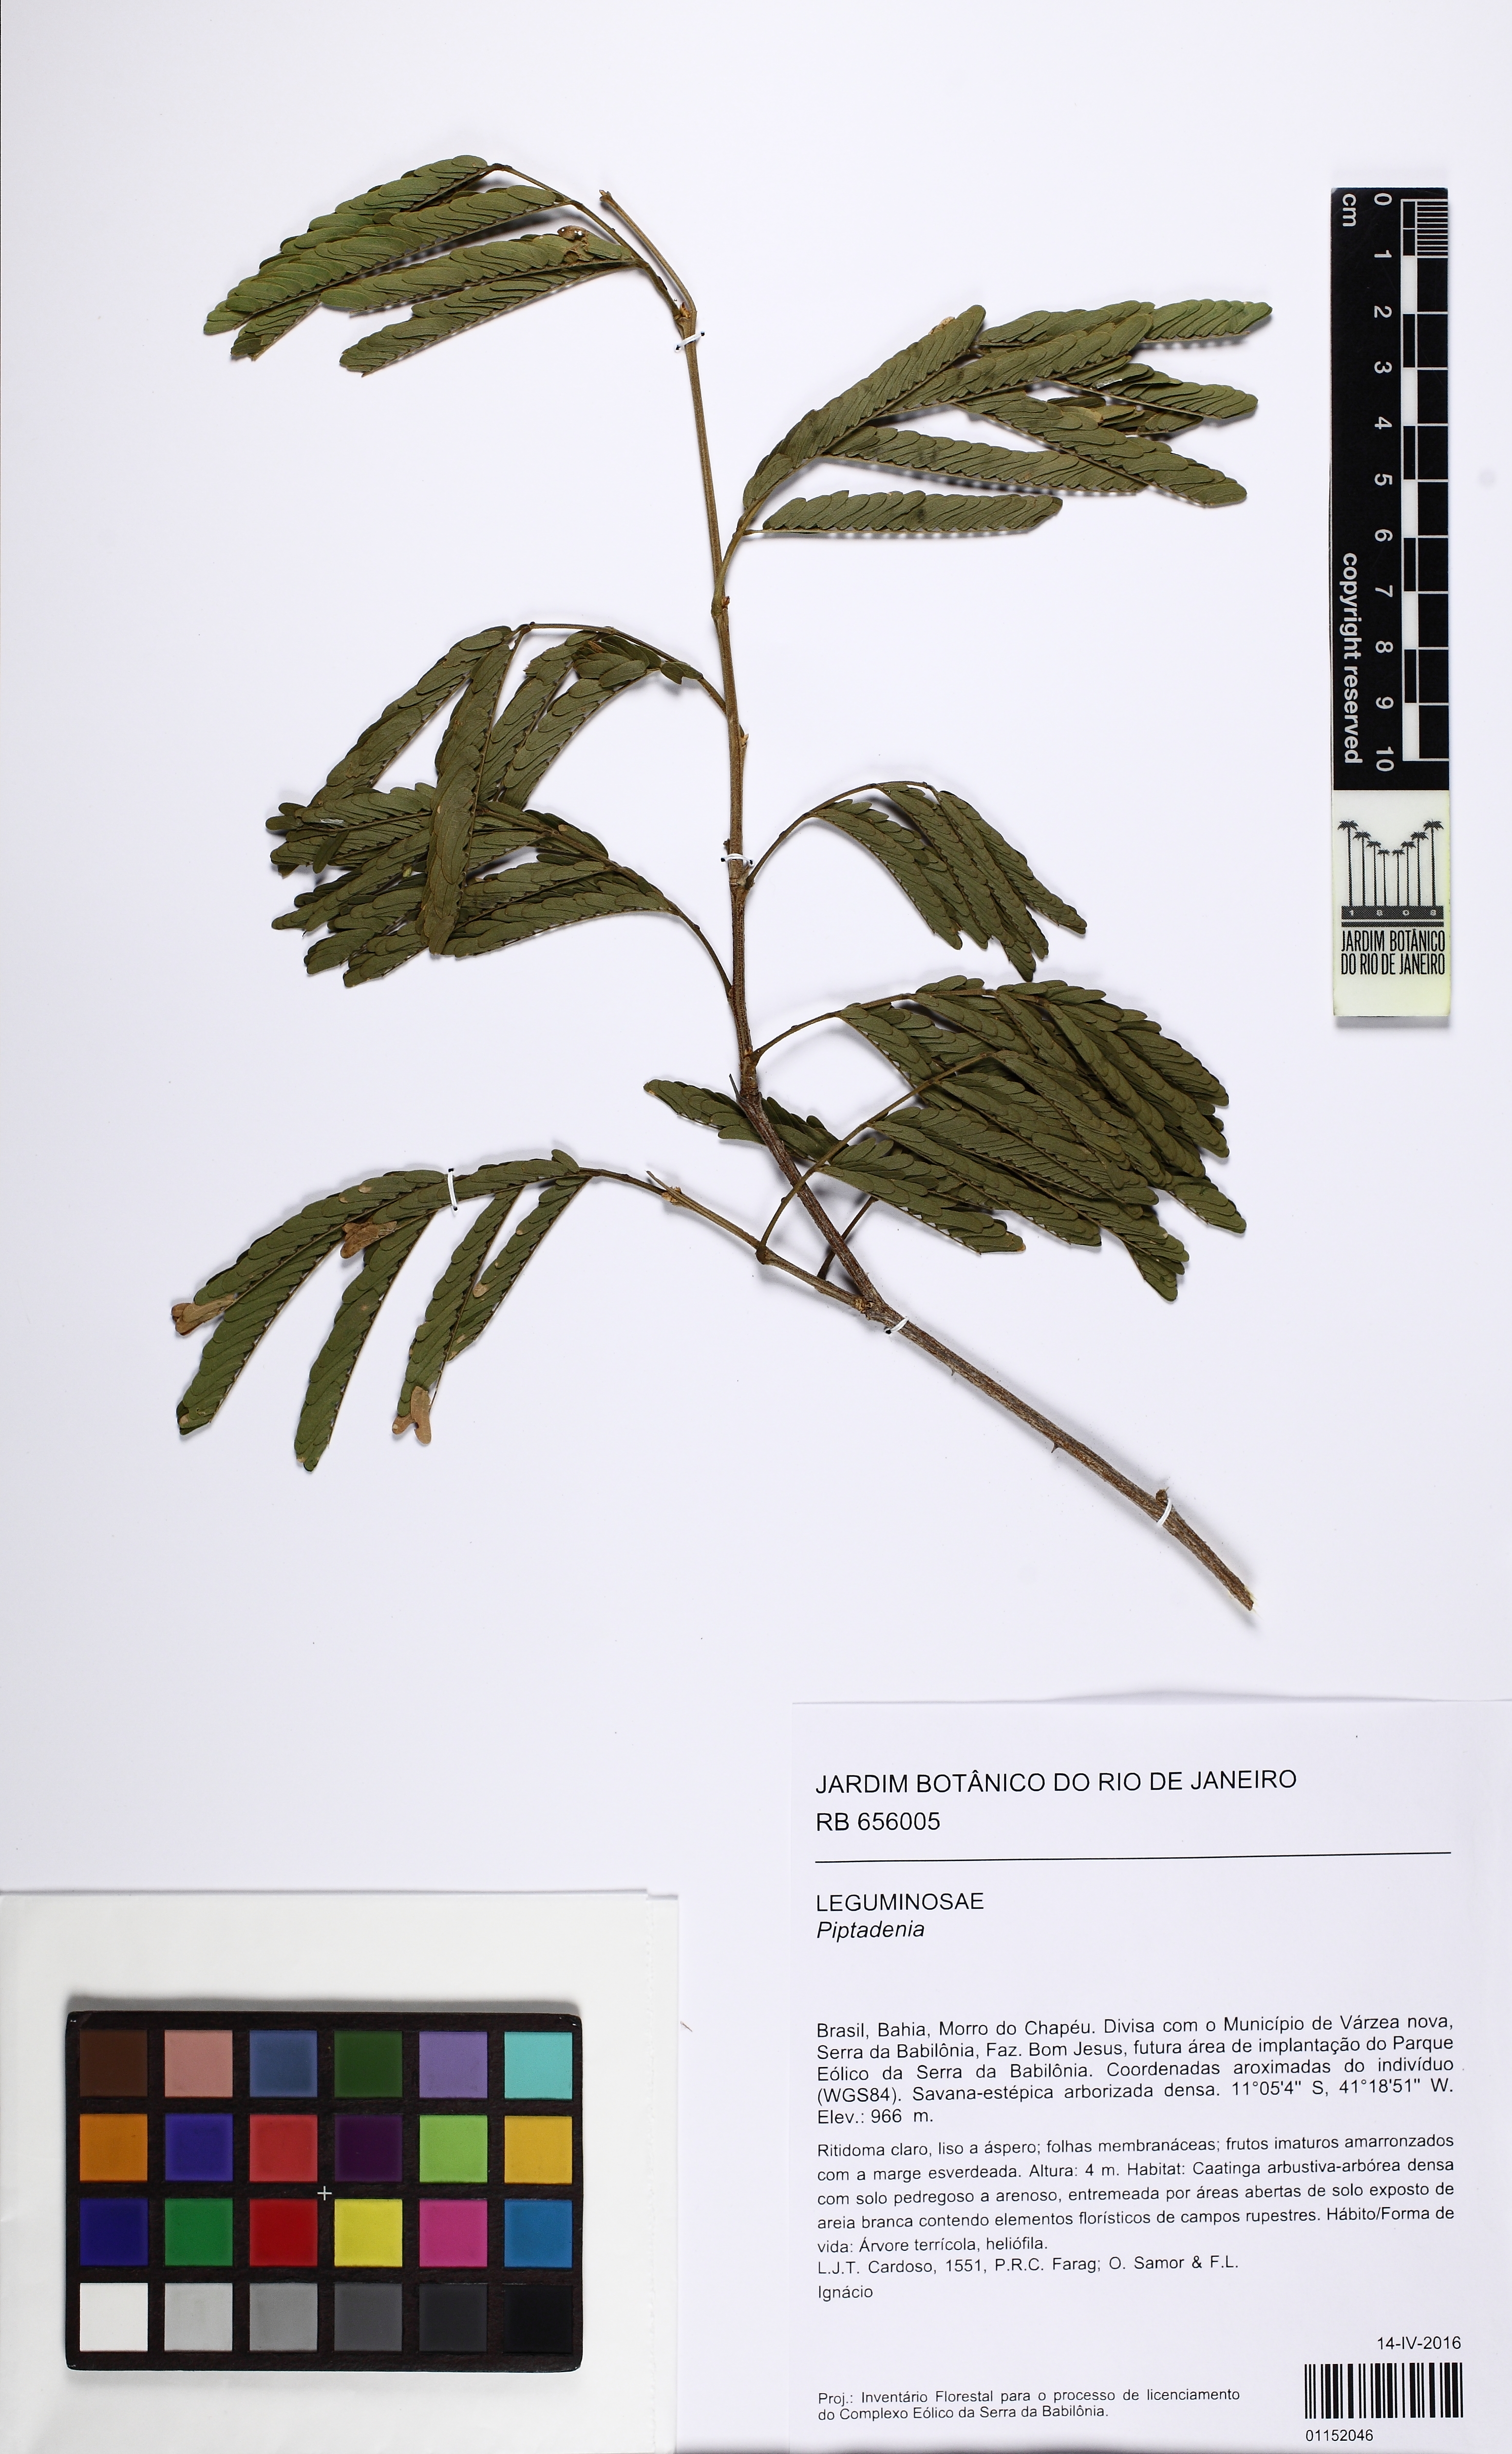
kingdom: Plantae
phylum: Tracheophyta
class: Magnoliopsida
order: Fabales
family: Fabaceae
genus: Piptadenia
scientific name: Piptadenia
